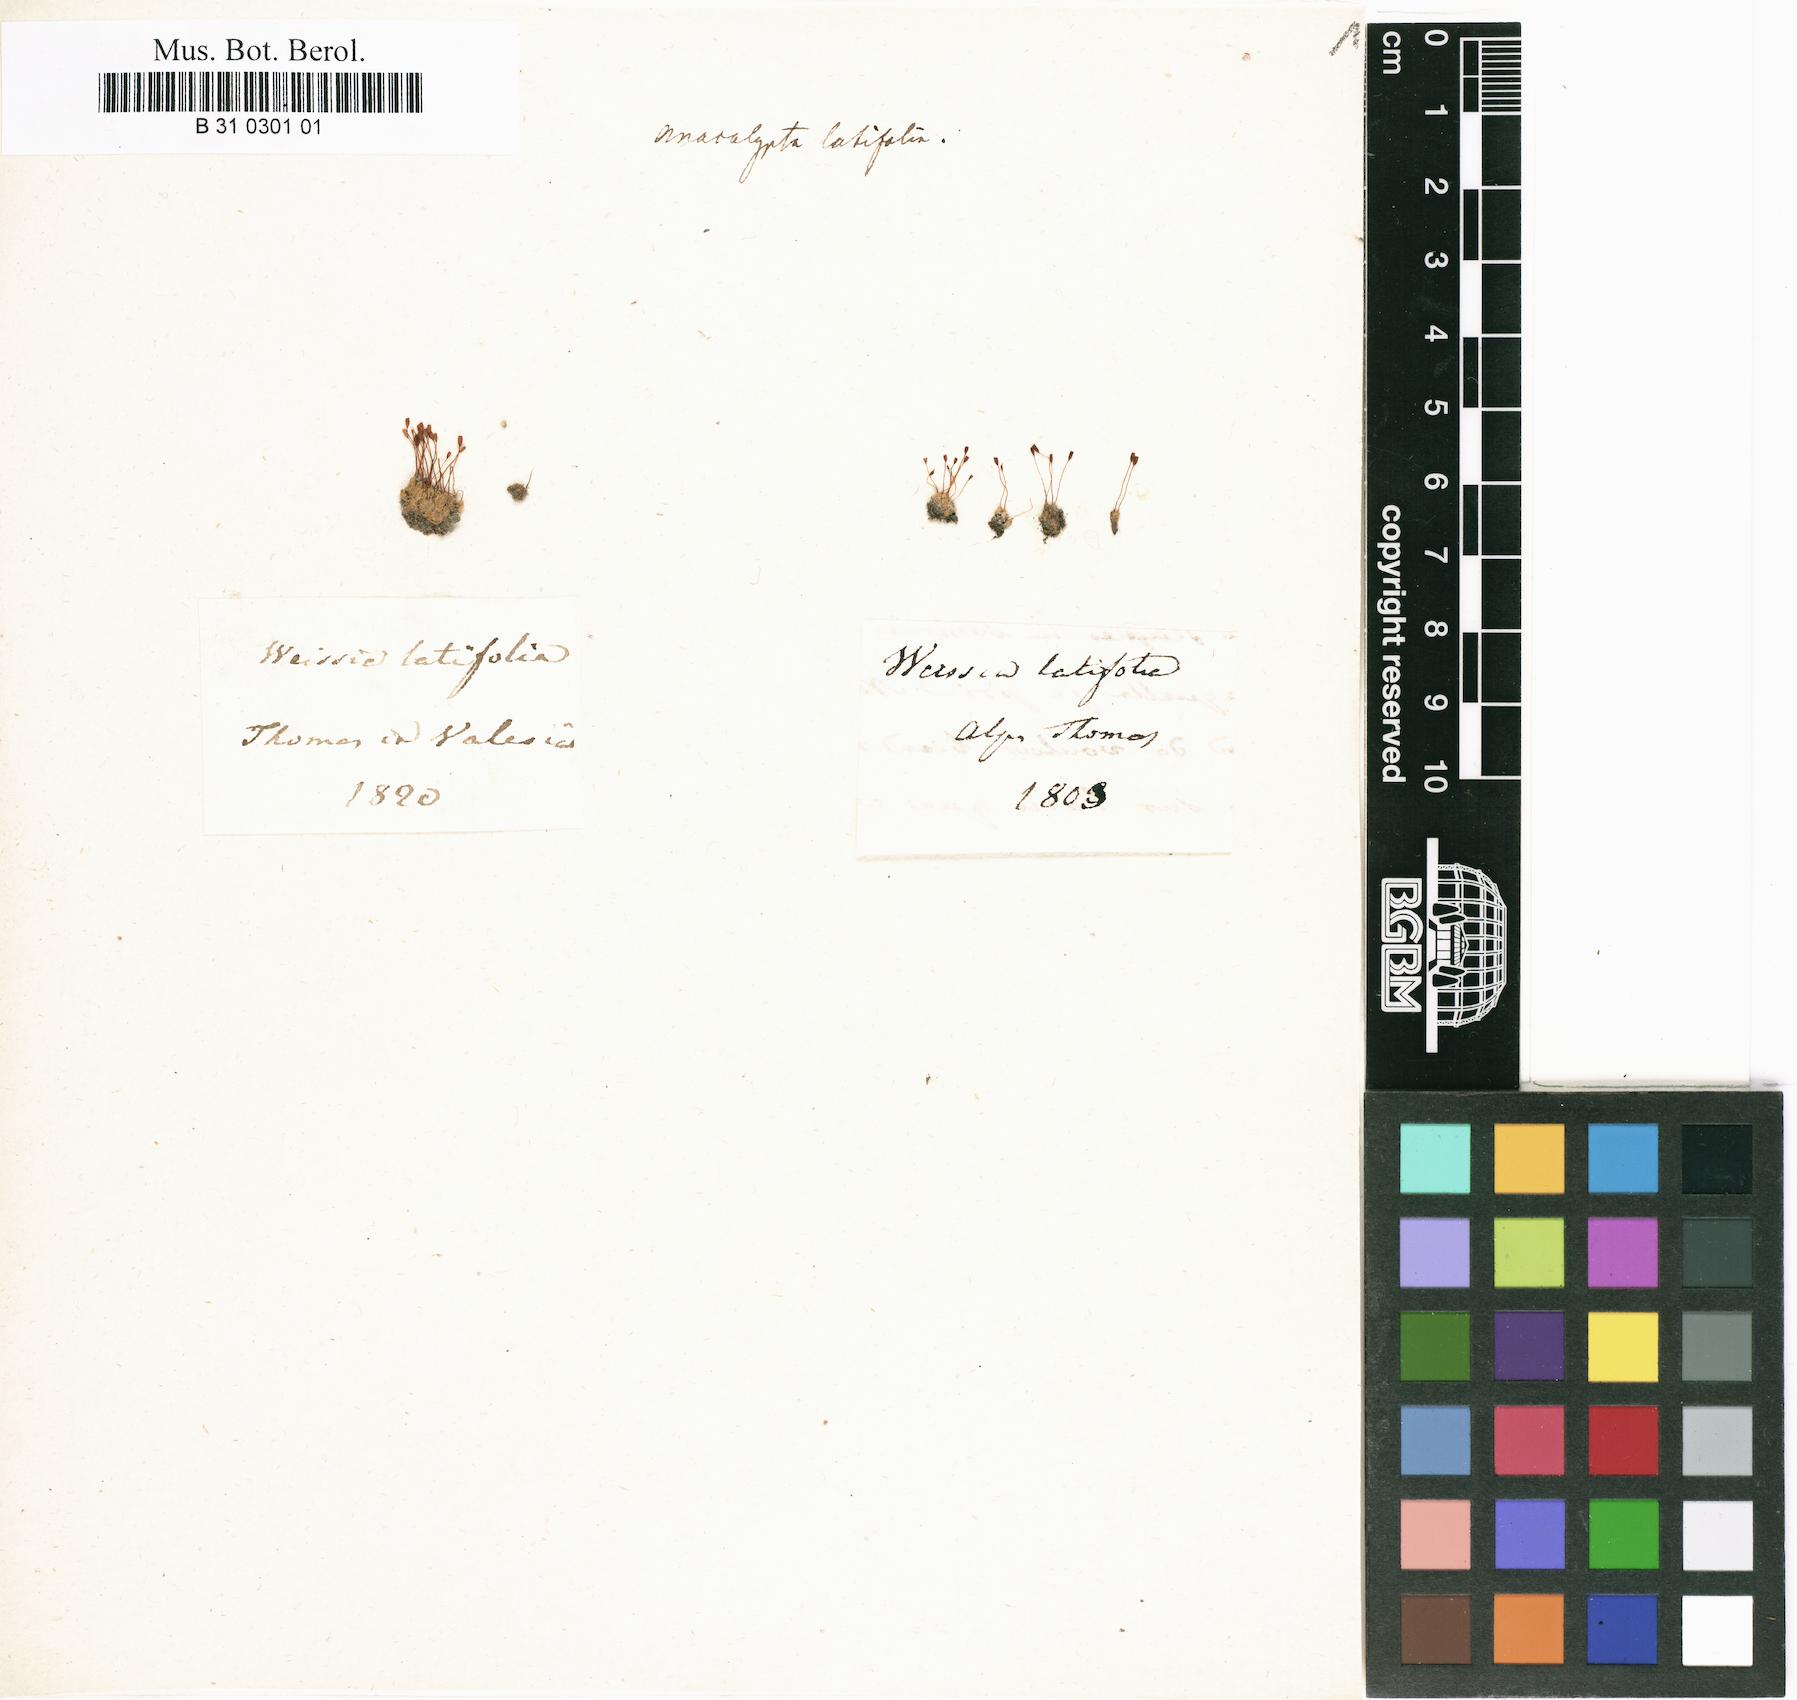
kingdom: Plantae
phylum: Bryophyta
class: Bryopsida
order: Pottiales
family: Pottiaceae
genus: Stegonia
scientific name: Stegonia latifolia
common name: Hood-leaved screw-moss
